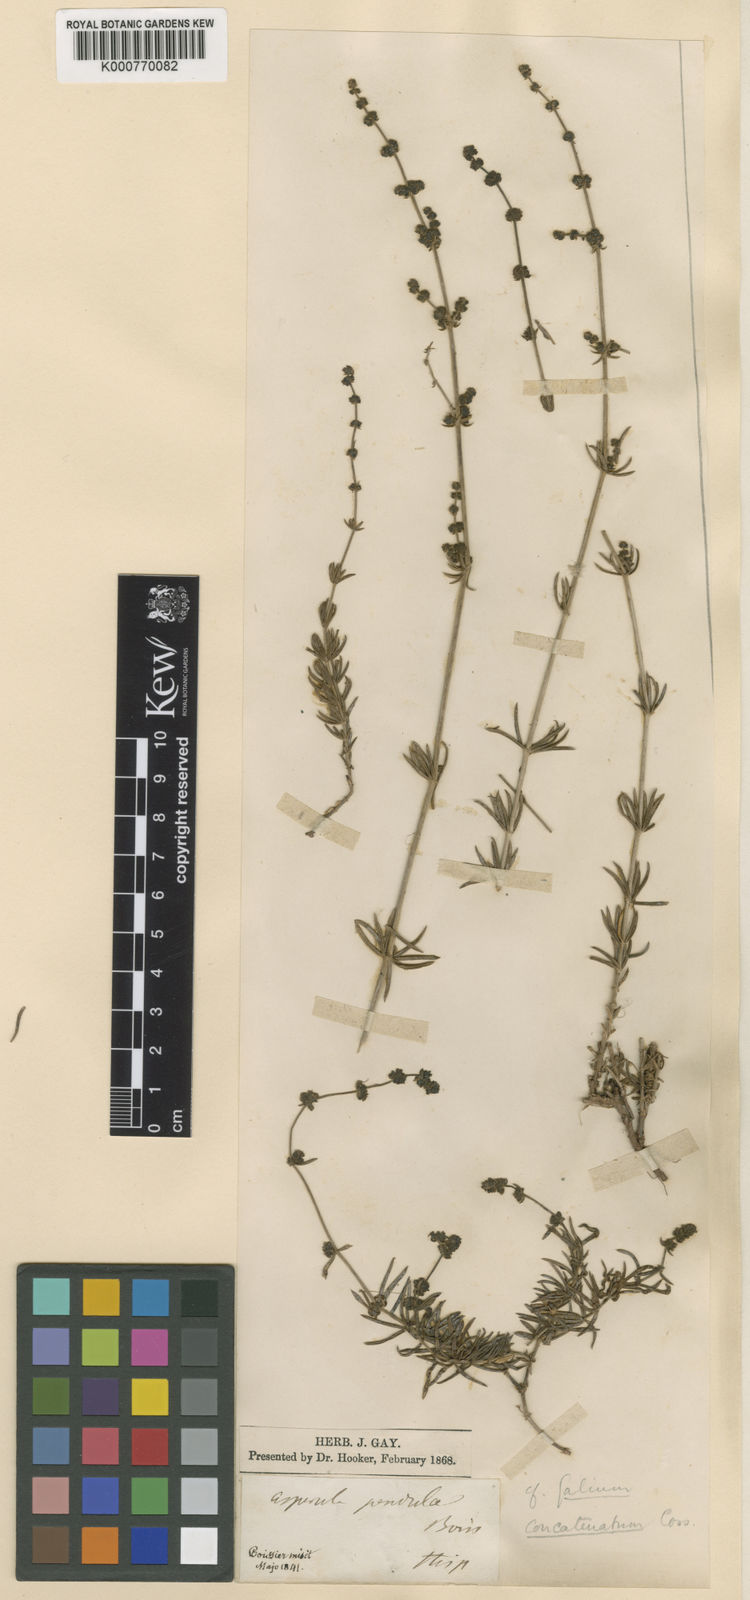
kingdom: Plantae
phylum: Tracheophyta
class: Magnoliopsida
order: Gentianales
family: Rubiaceae
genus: Asperula
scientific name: Asperula
